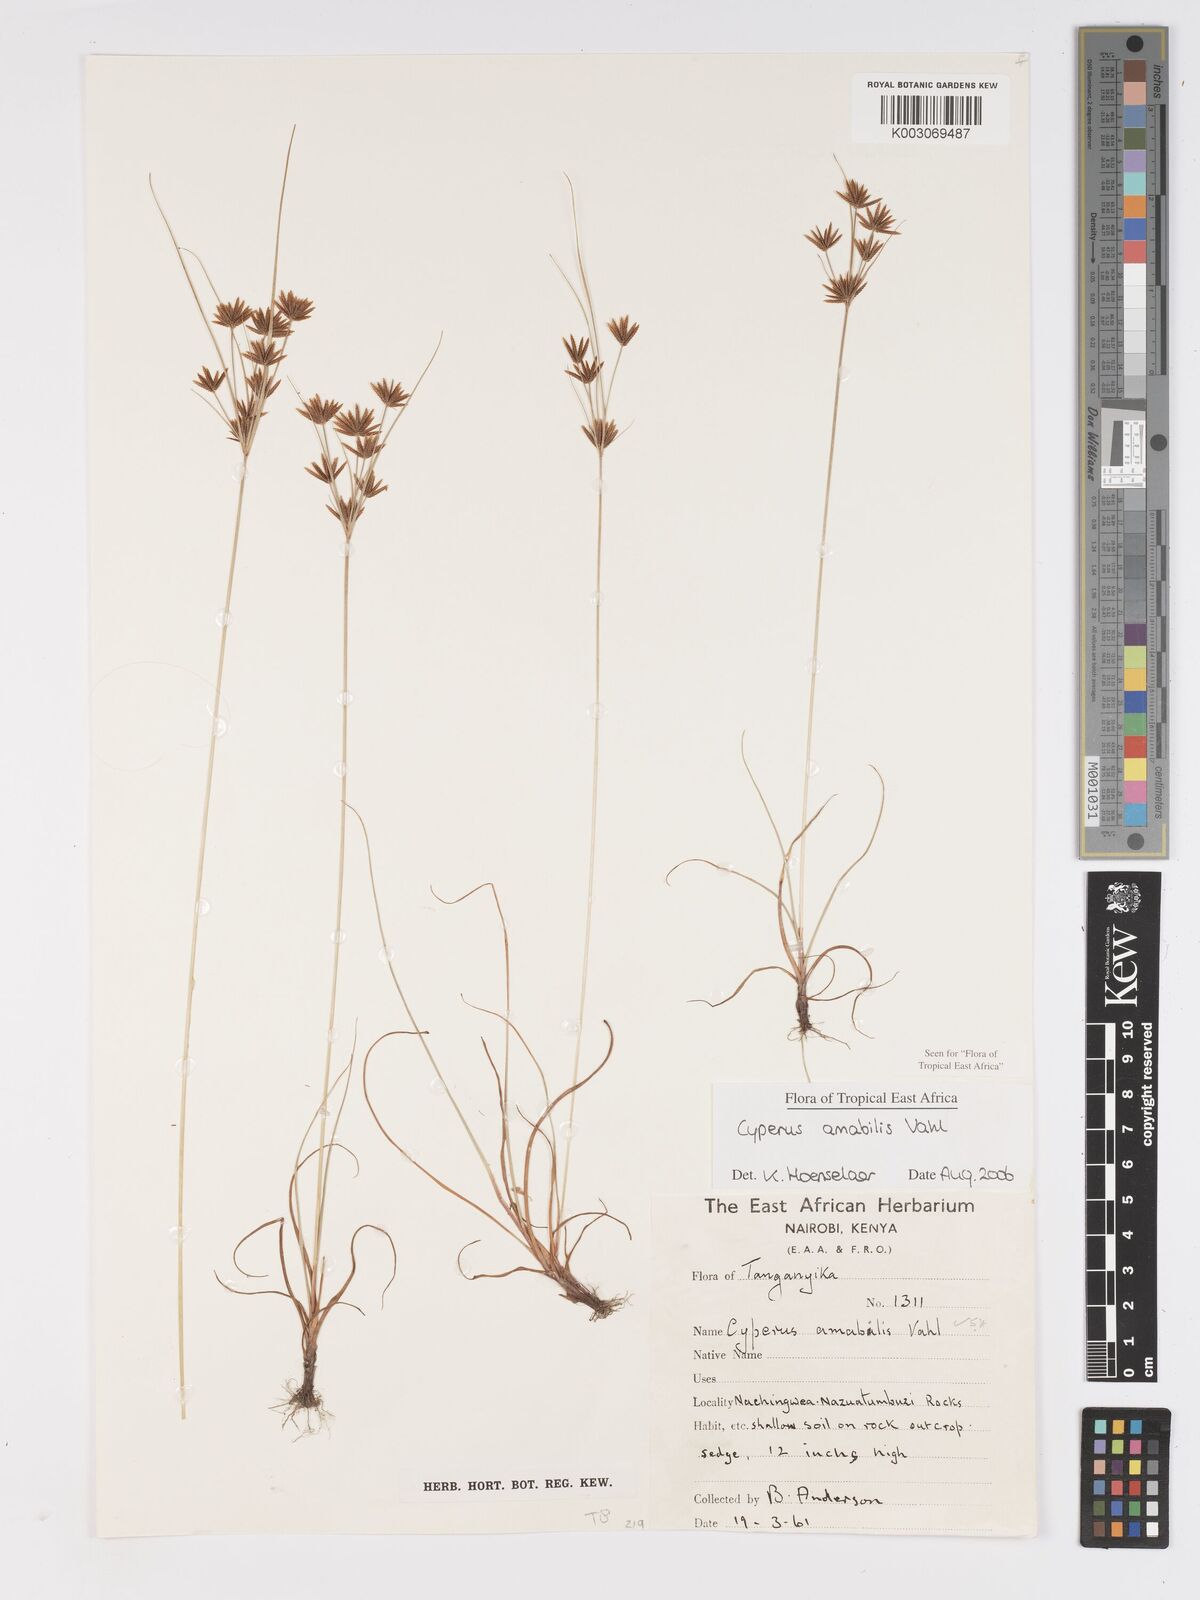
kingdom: Plantae
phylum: Tracheophyta
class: Liliopsida
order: Poales
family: Cyperaceae
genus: Cyperus
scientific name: Cyperus amabilis
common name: Foothill flat sedge
